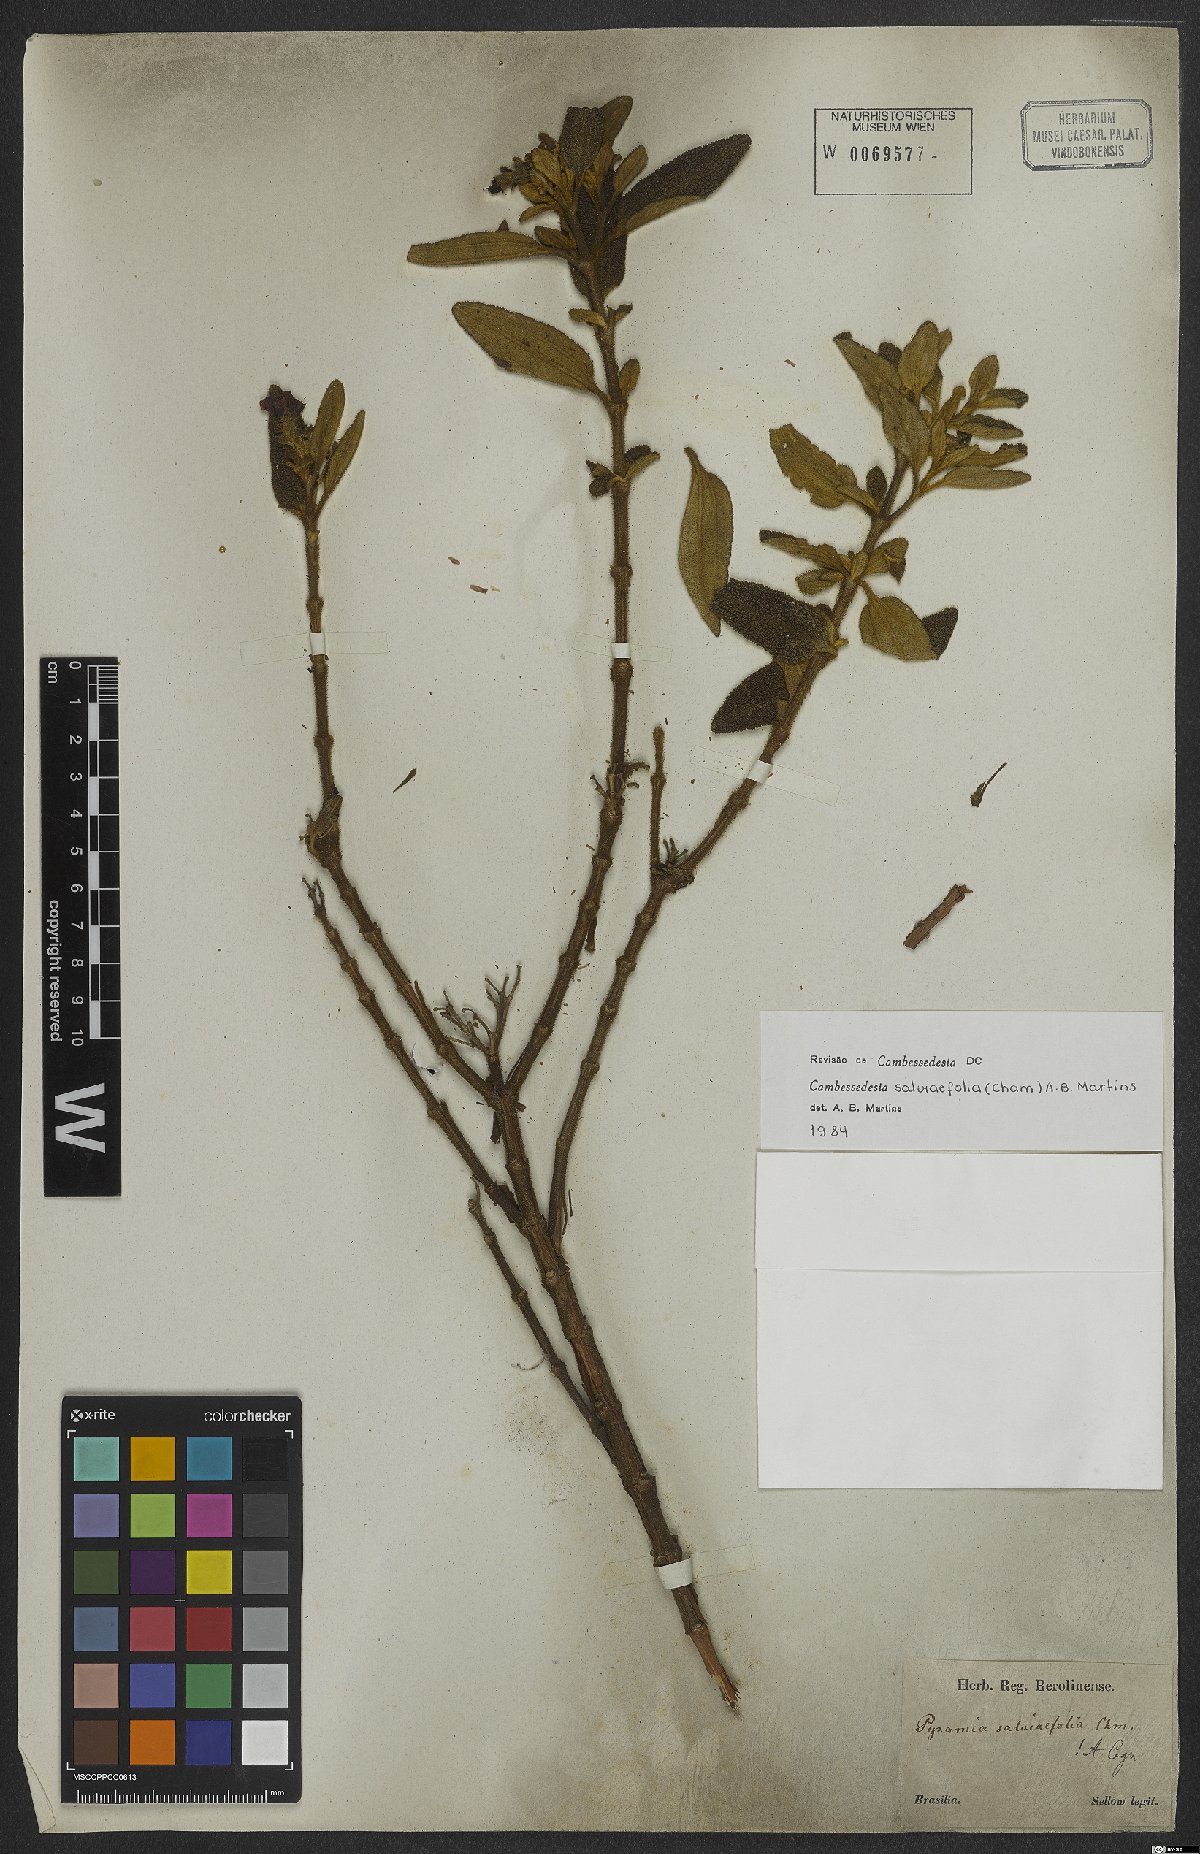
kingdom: Plantae
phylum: Tracheophyta
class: Magnoliopsida
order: Myrtales
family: Melastomataceae
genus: Cambessedesia
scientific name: Cambessedesia salviifolia
